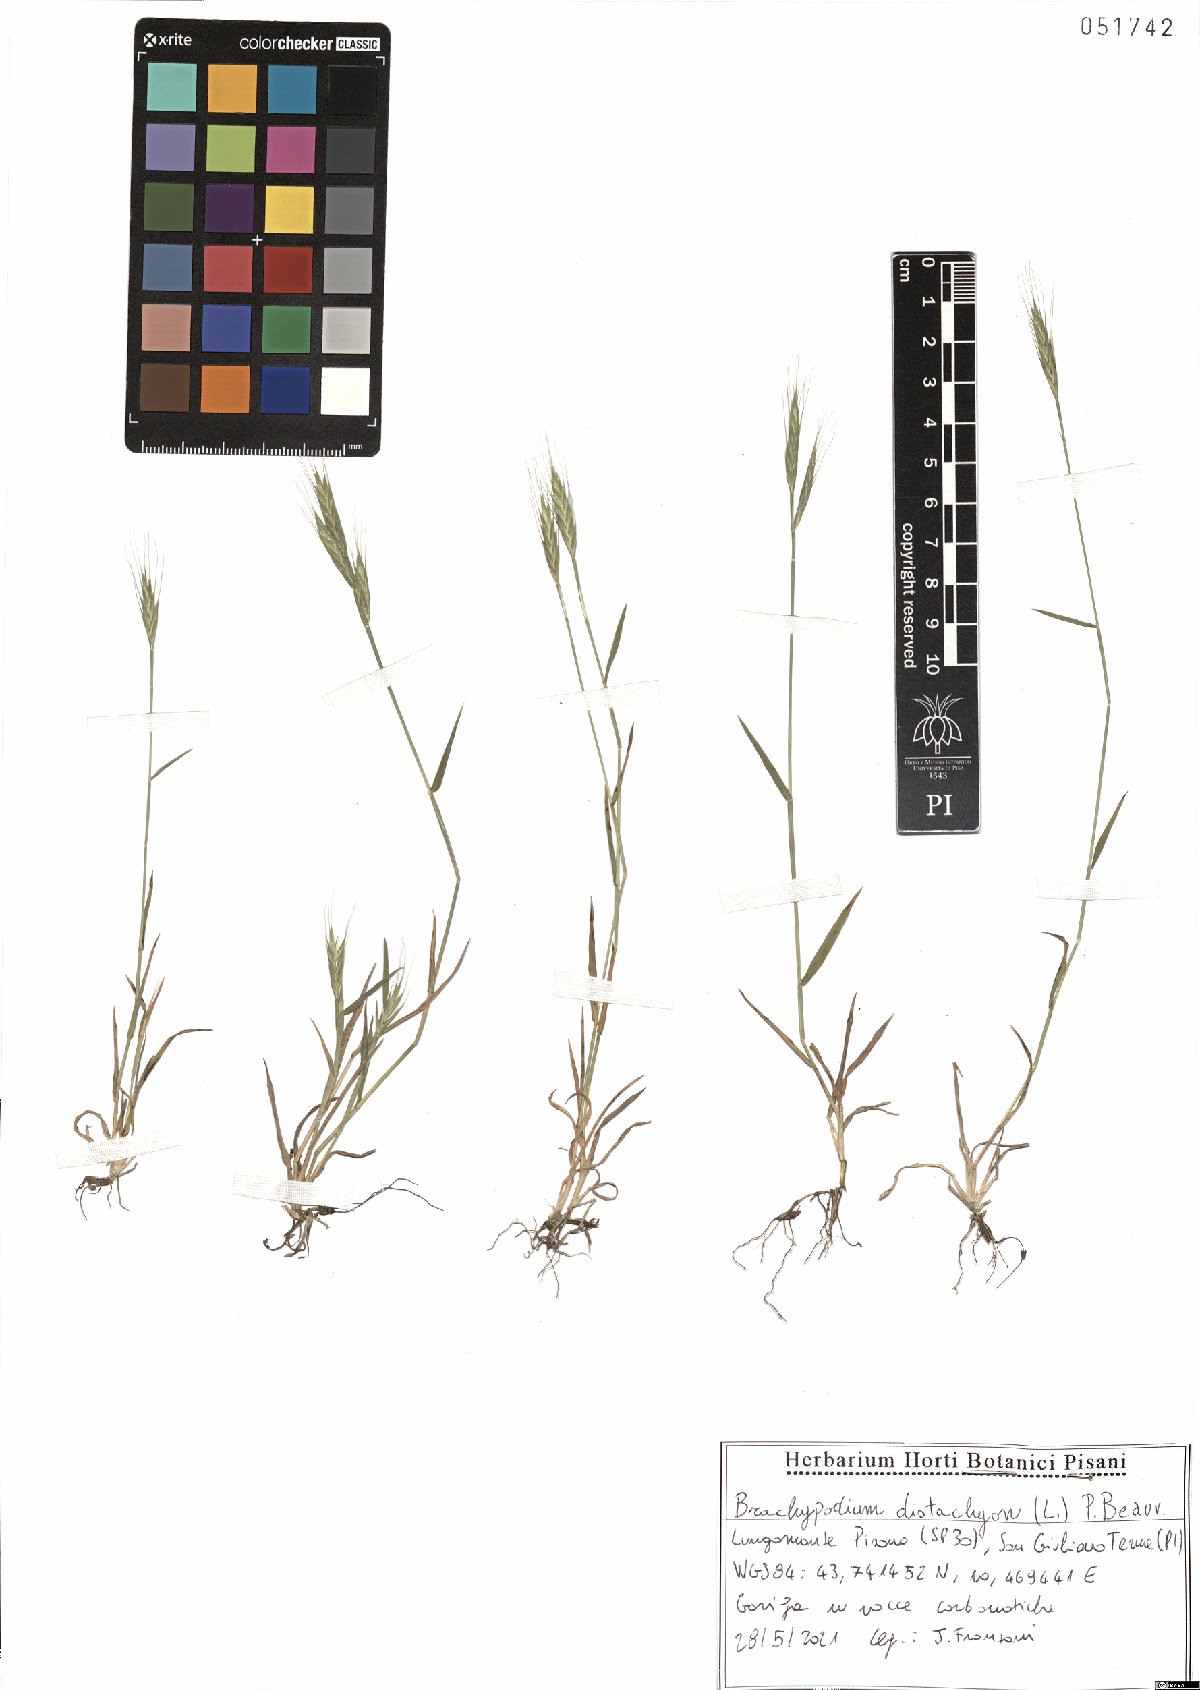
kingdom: Plantae
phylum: Tracheophyta
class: Liliopsida
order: Poales
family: Poaceae
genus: Brachypodium
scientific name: Brachypodium distachyon
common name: Stiff brome
